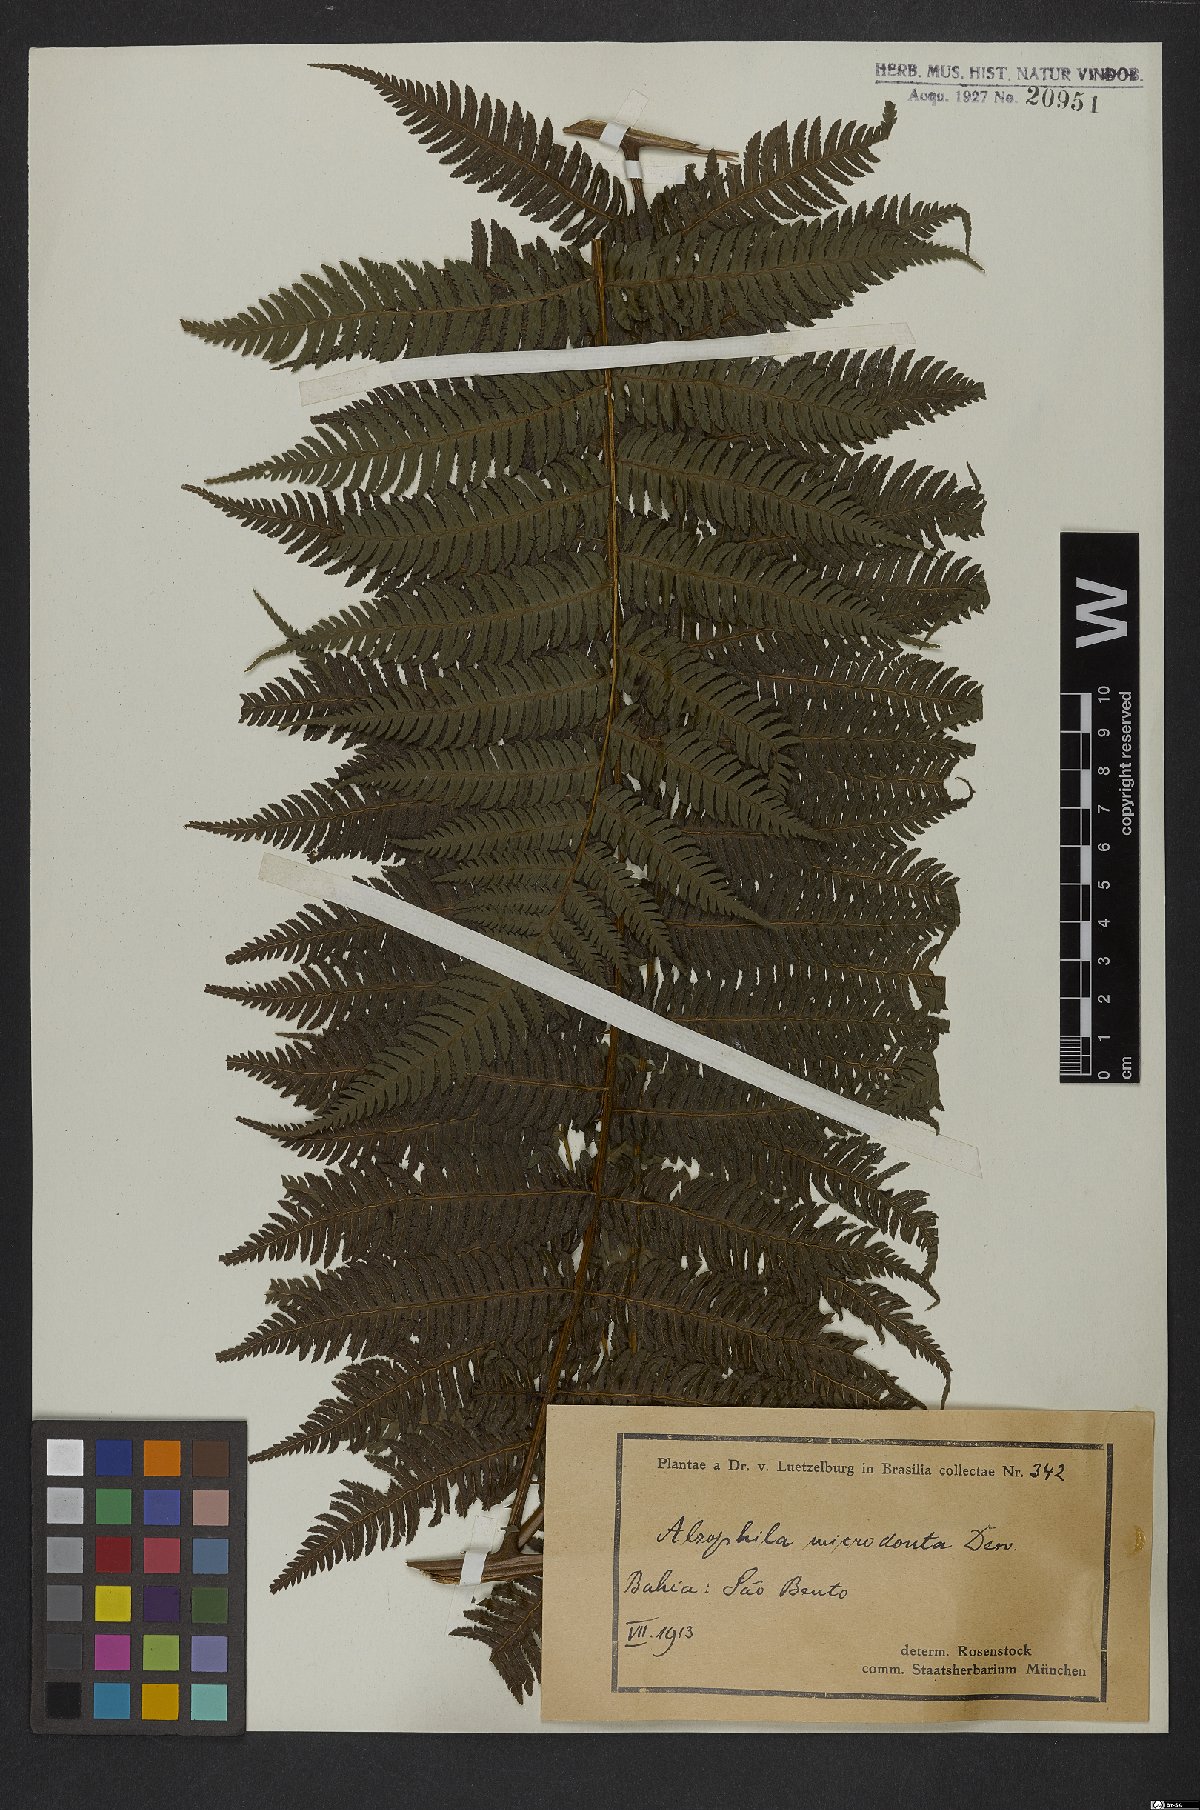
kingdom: Plantae
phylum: Tracheophyta
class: Polypodiopsida
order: Cyatheales
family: Cyatheaceae
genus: Cyathea
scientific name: Cyathea microdonta
